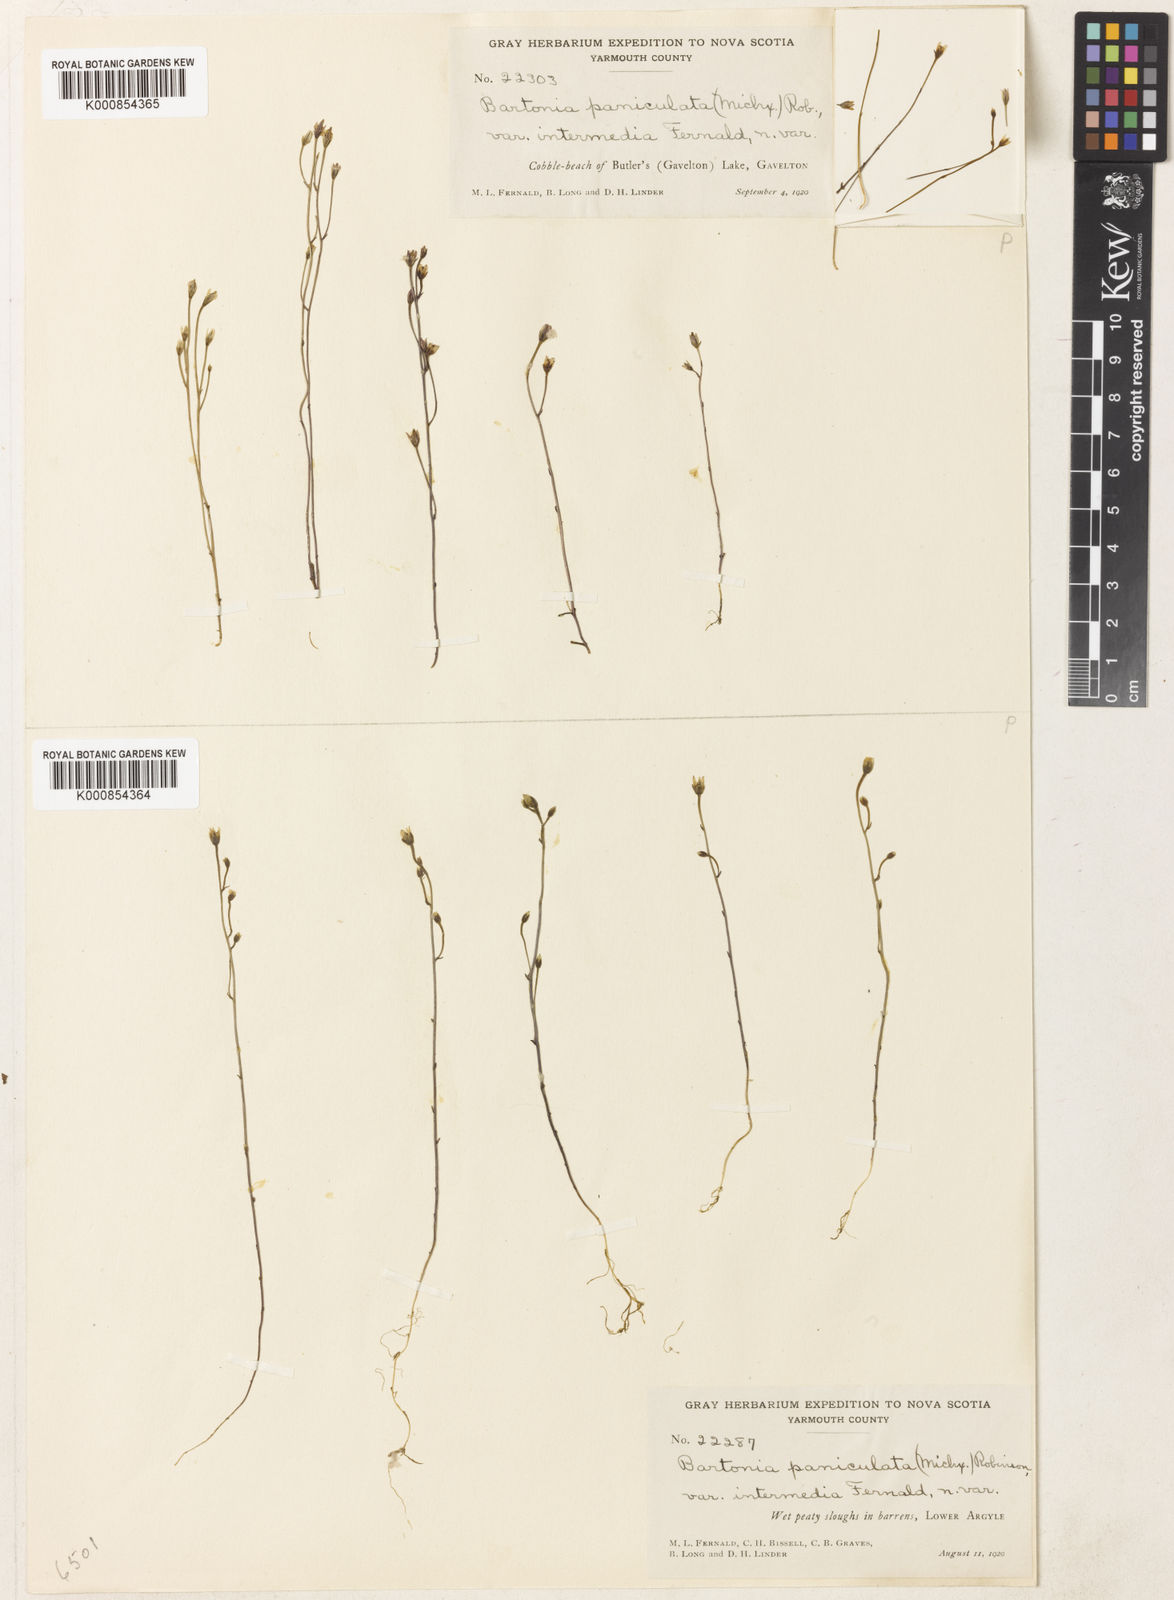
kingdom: Plantae
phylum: Tracheophyta
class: Magnoliopsida
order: Gentianales
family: Gentianaceae
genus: Bartonia
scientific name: Bartonia paniculata
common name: Branched bartonia
